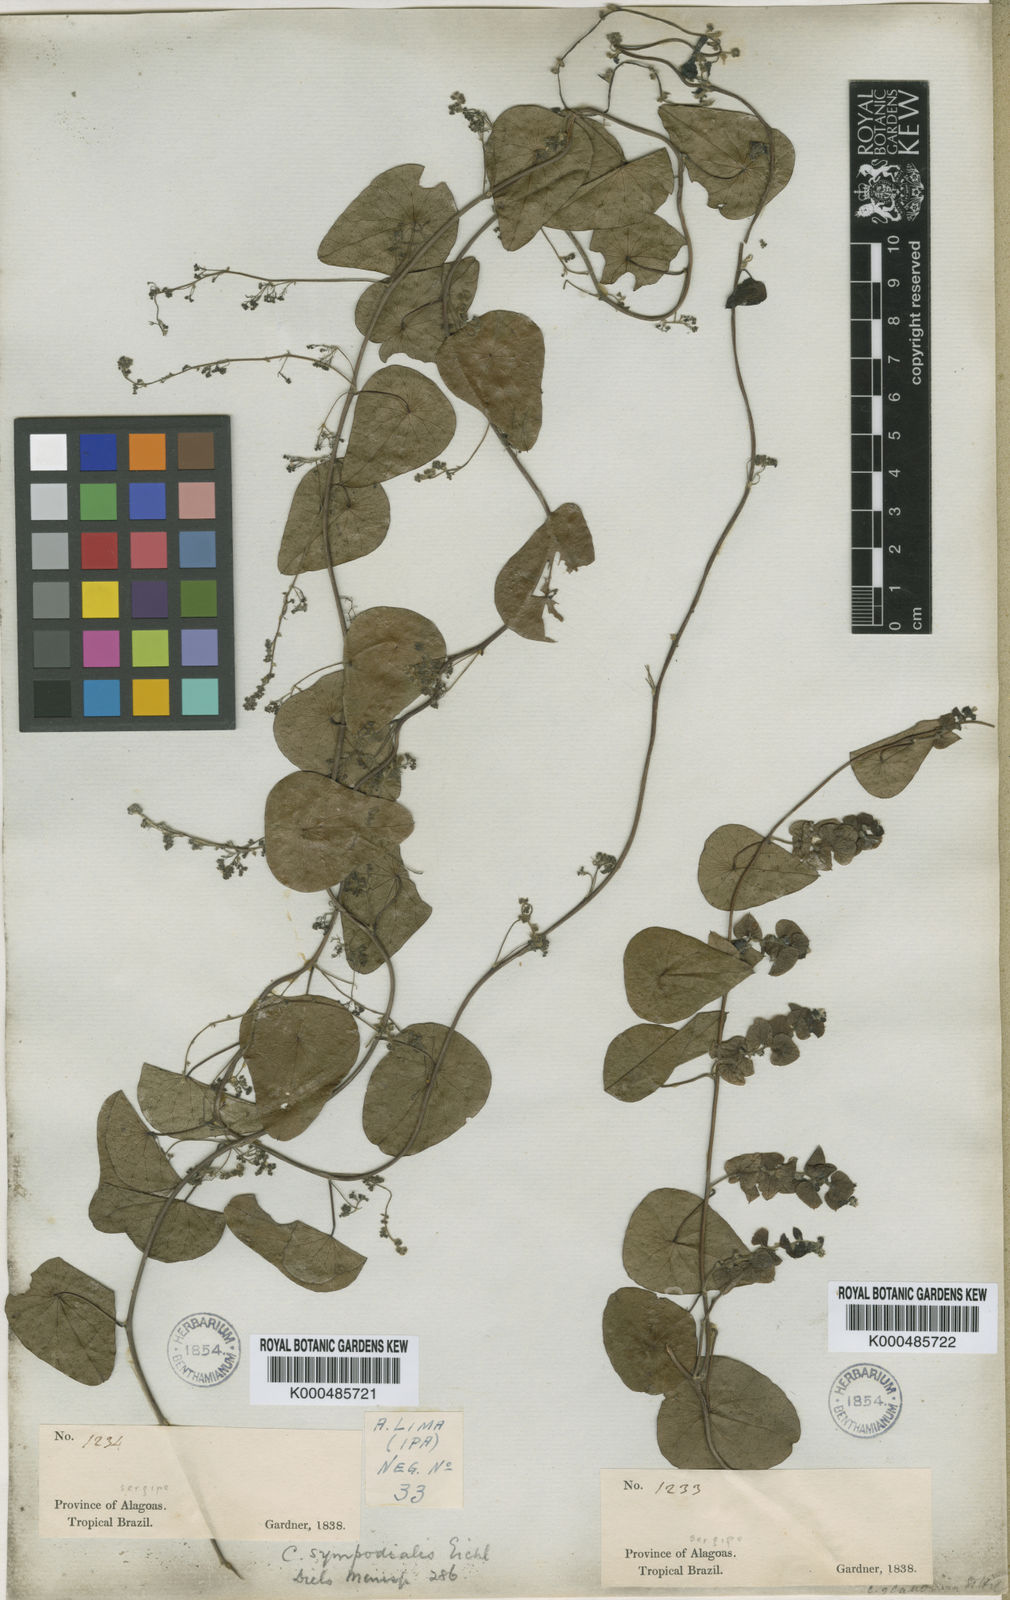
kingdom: Plantae
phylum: Tracheophyta
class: Magnoliopsida
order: Ranunculales
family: Menispermaceae
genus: Cissampelos
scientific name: Cissampelos sympodialis
